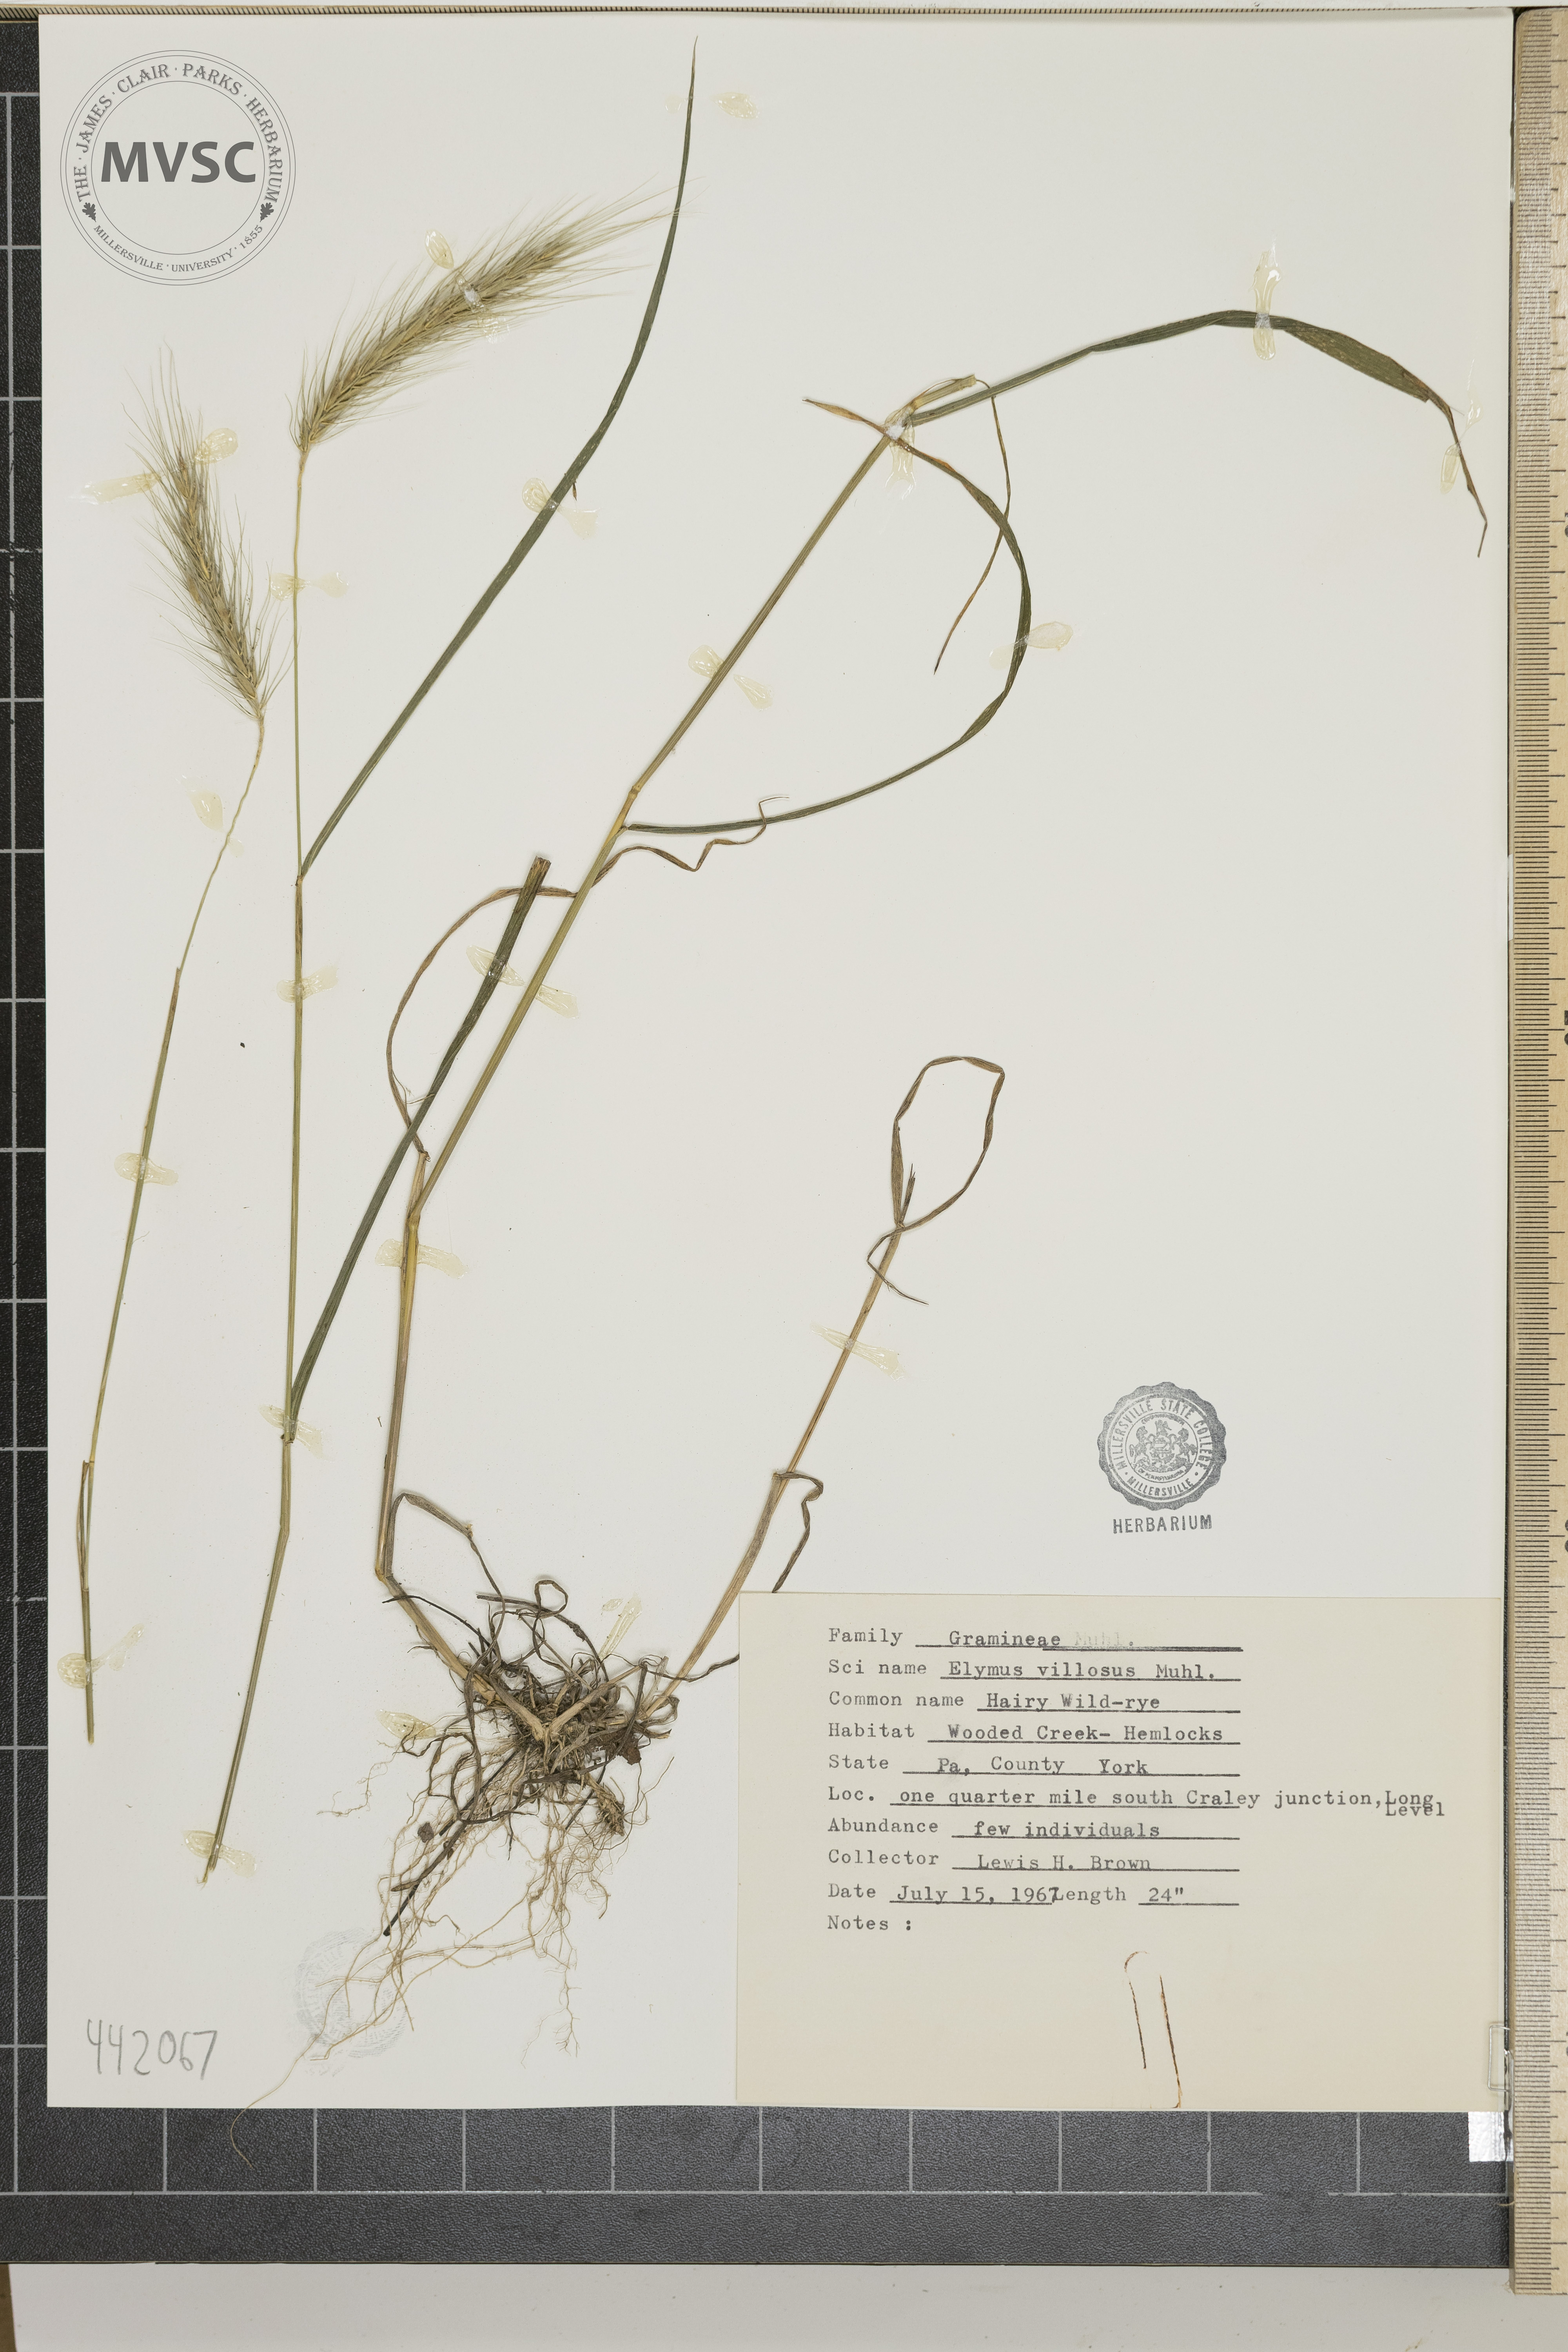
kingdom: Plantae
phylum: Tracheophyta
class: Liliopsida
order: Poales
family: Poaceae
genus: Elymus
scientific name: Elymus villosus
